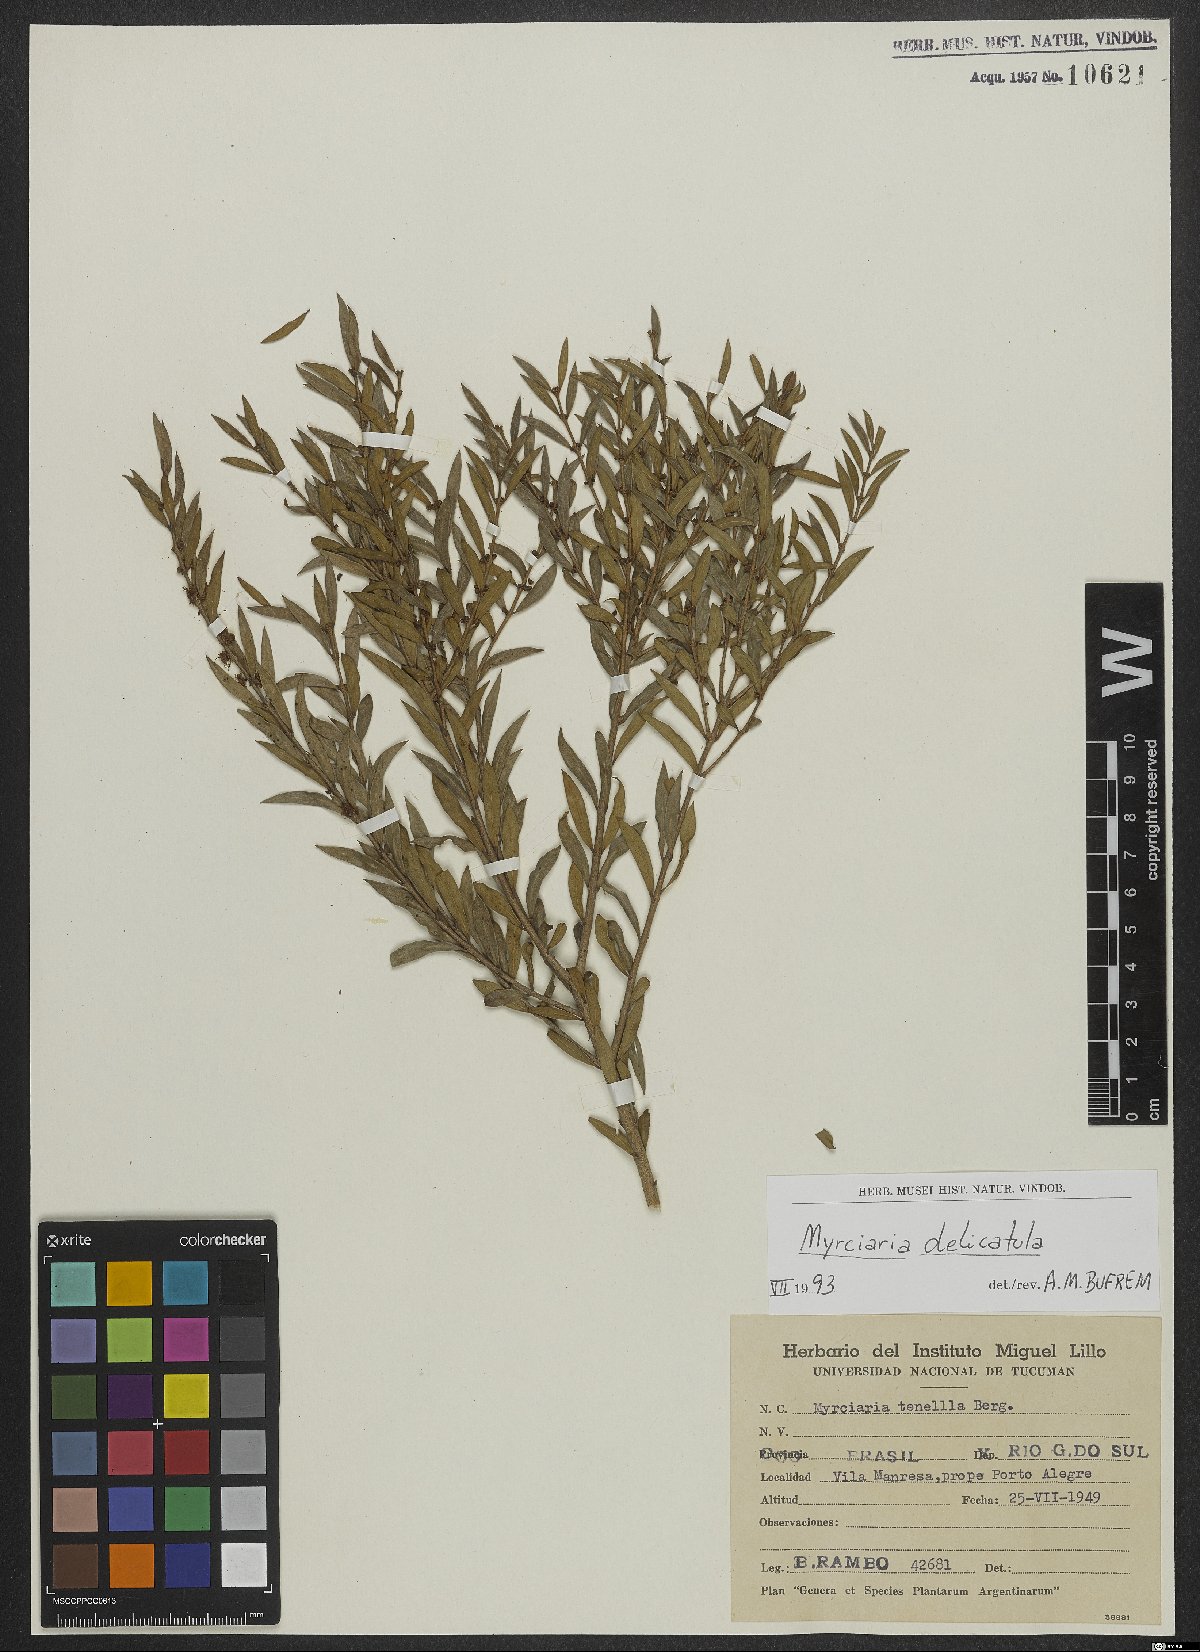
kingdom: Plantae
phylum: Tracheophyta
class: Magnoliopsida
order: Myrtales
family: Myrtaceae
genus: Myrciaria
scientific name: Myrciaria delicatula
